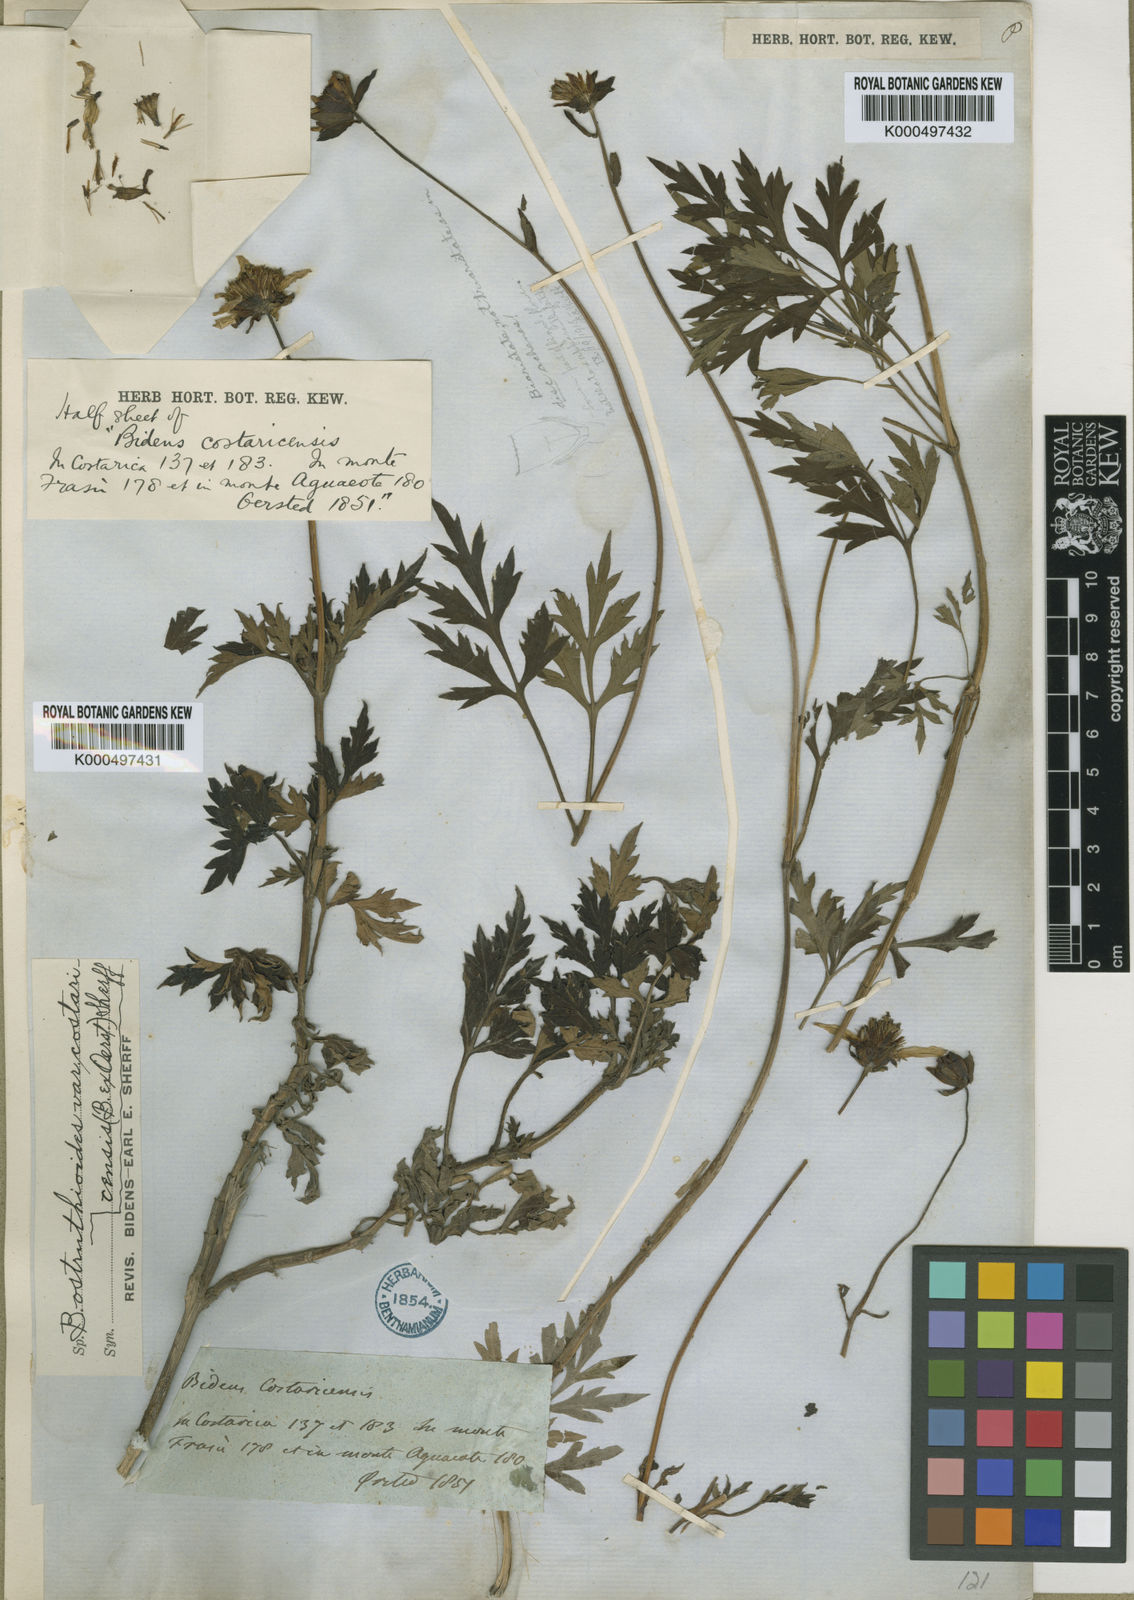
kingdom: Plantae
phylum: Tracheophyta
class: Magnoliopsida
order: Asterales
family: Asteraceae
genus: Bidens
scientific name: Bidens ostruthioides
